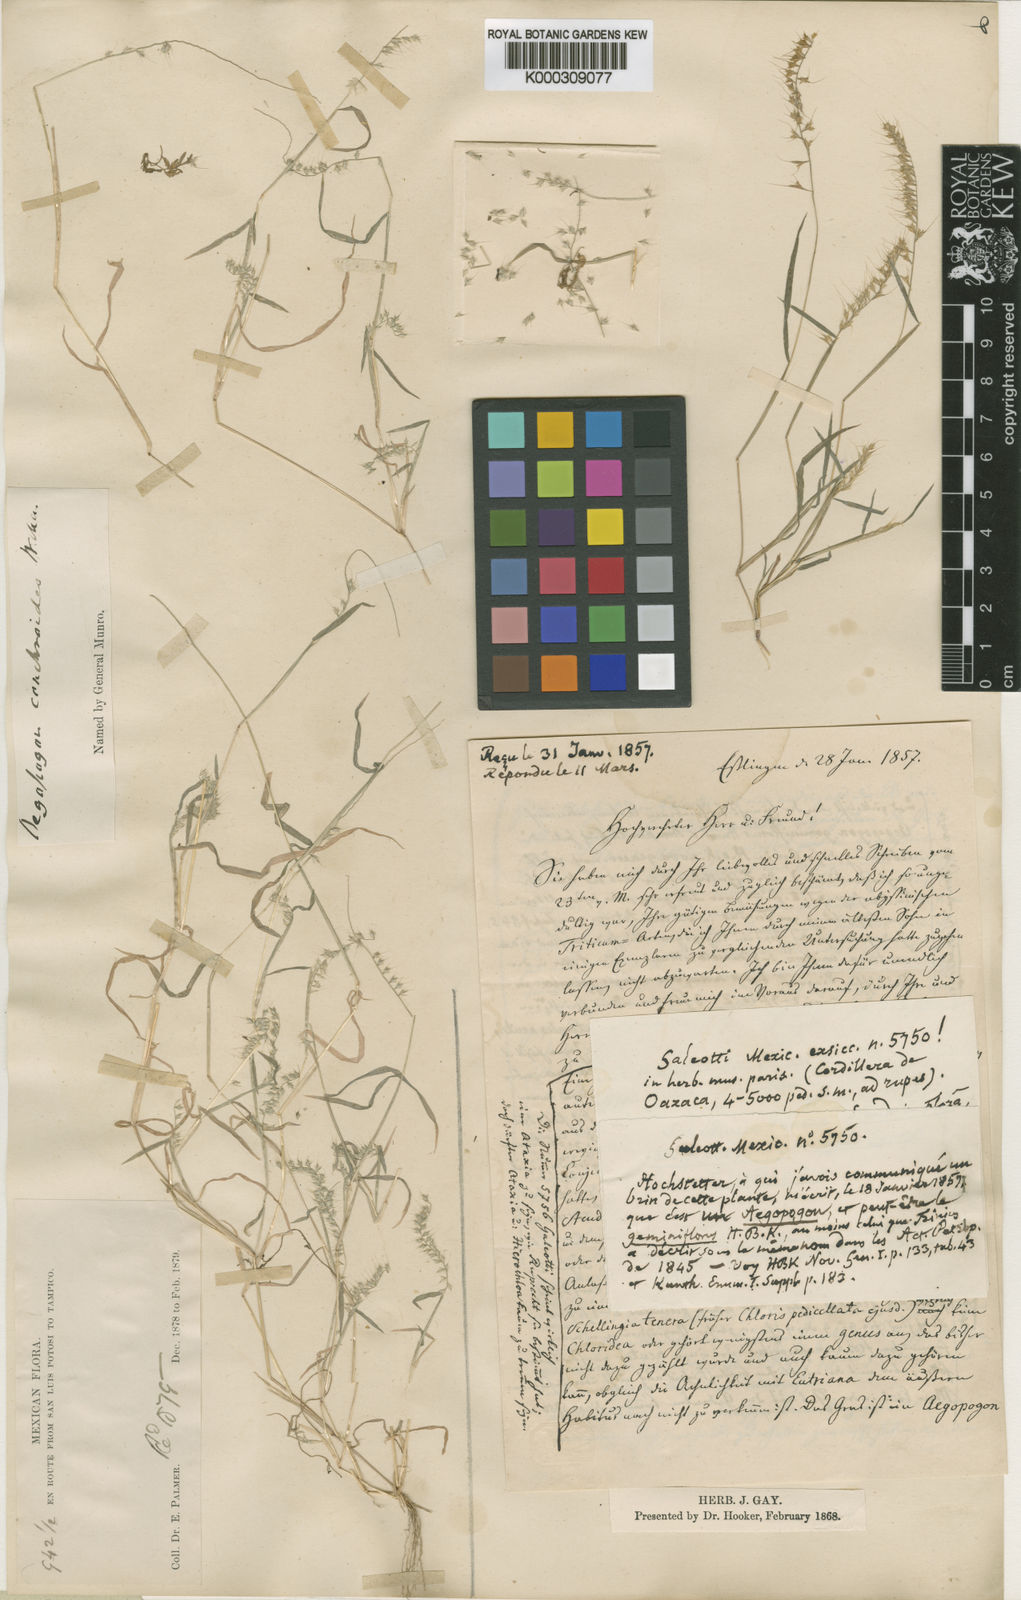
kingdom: Plantae
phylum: Tracheophyta
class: Liliopsida
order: Poales
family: Poaceae
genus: Muhlenbergia
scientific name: Muhlenbergia uniseta
